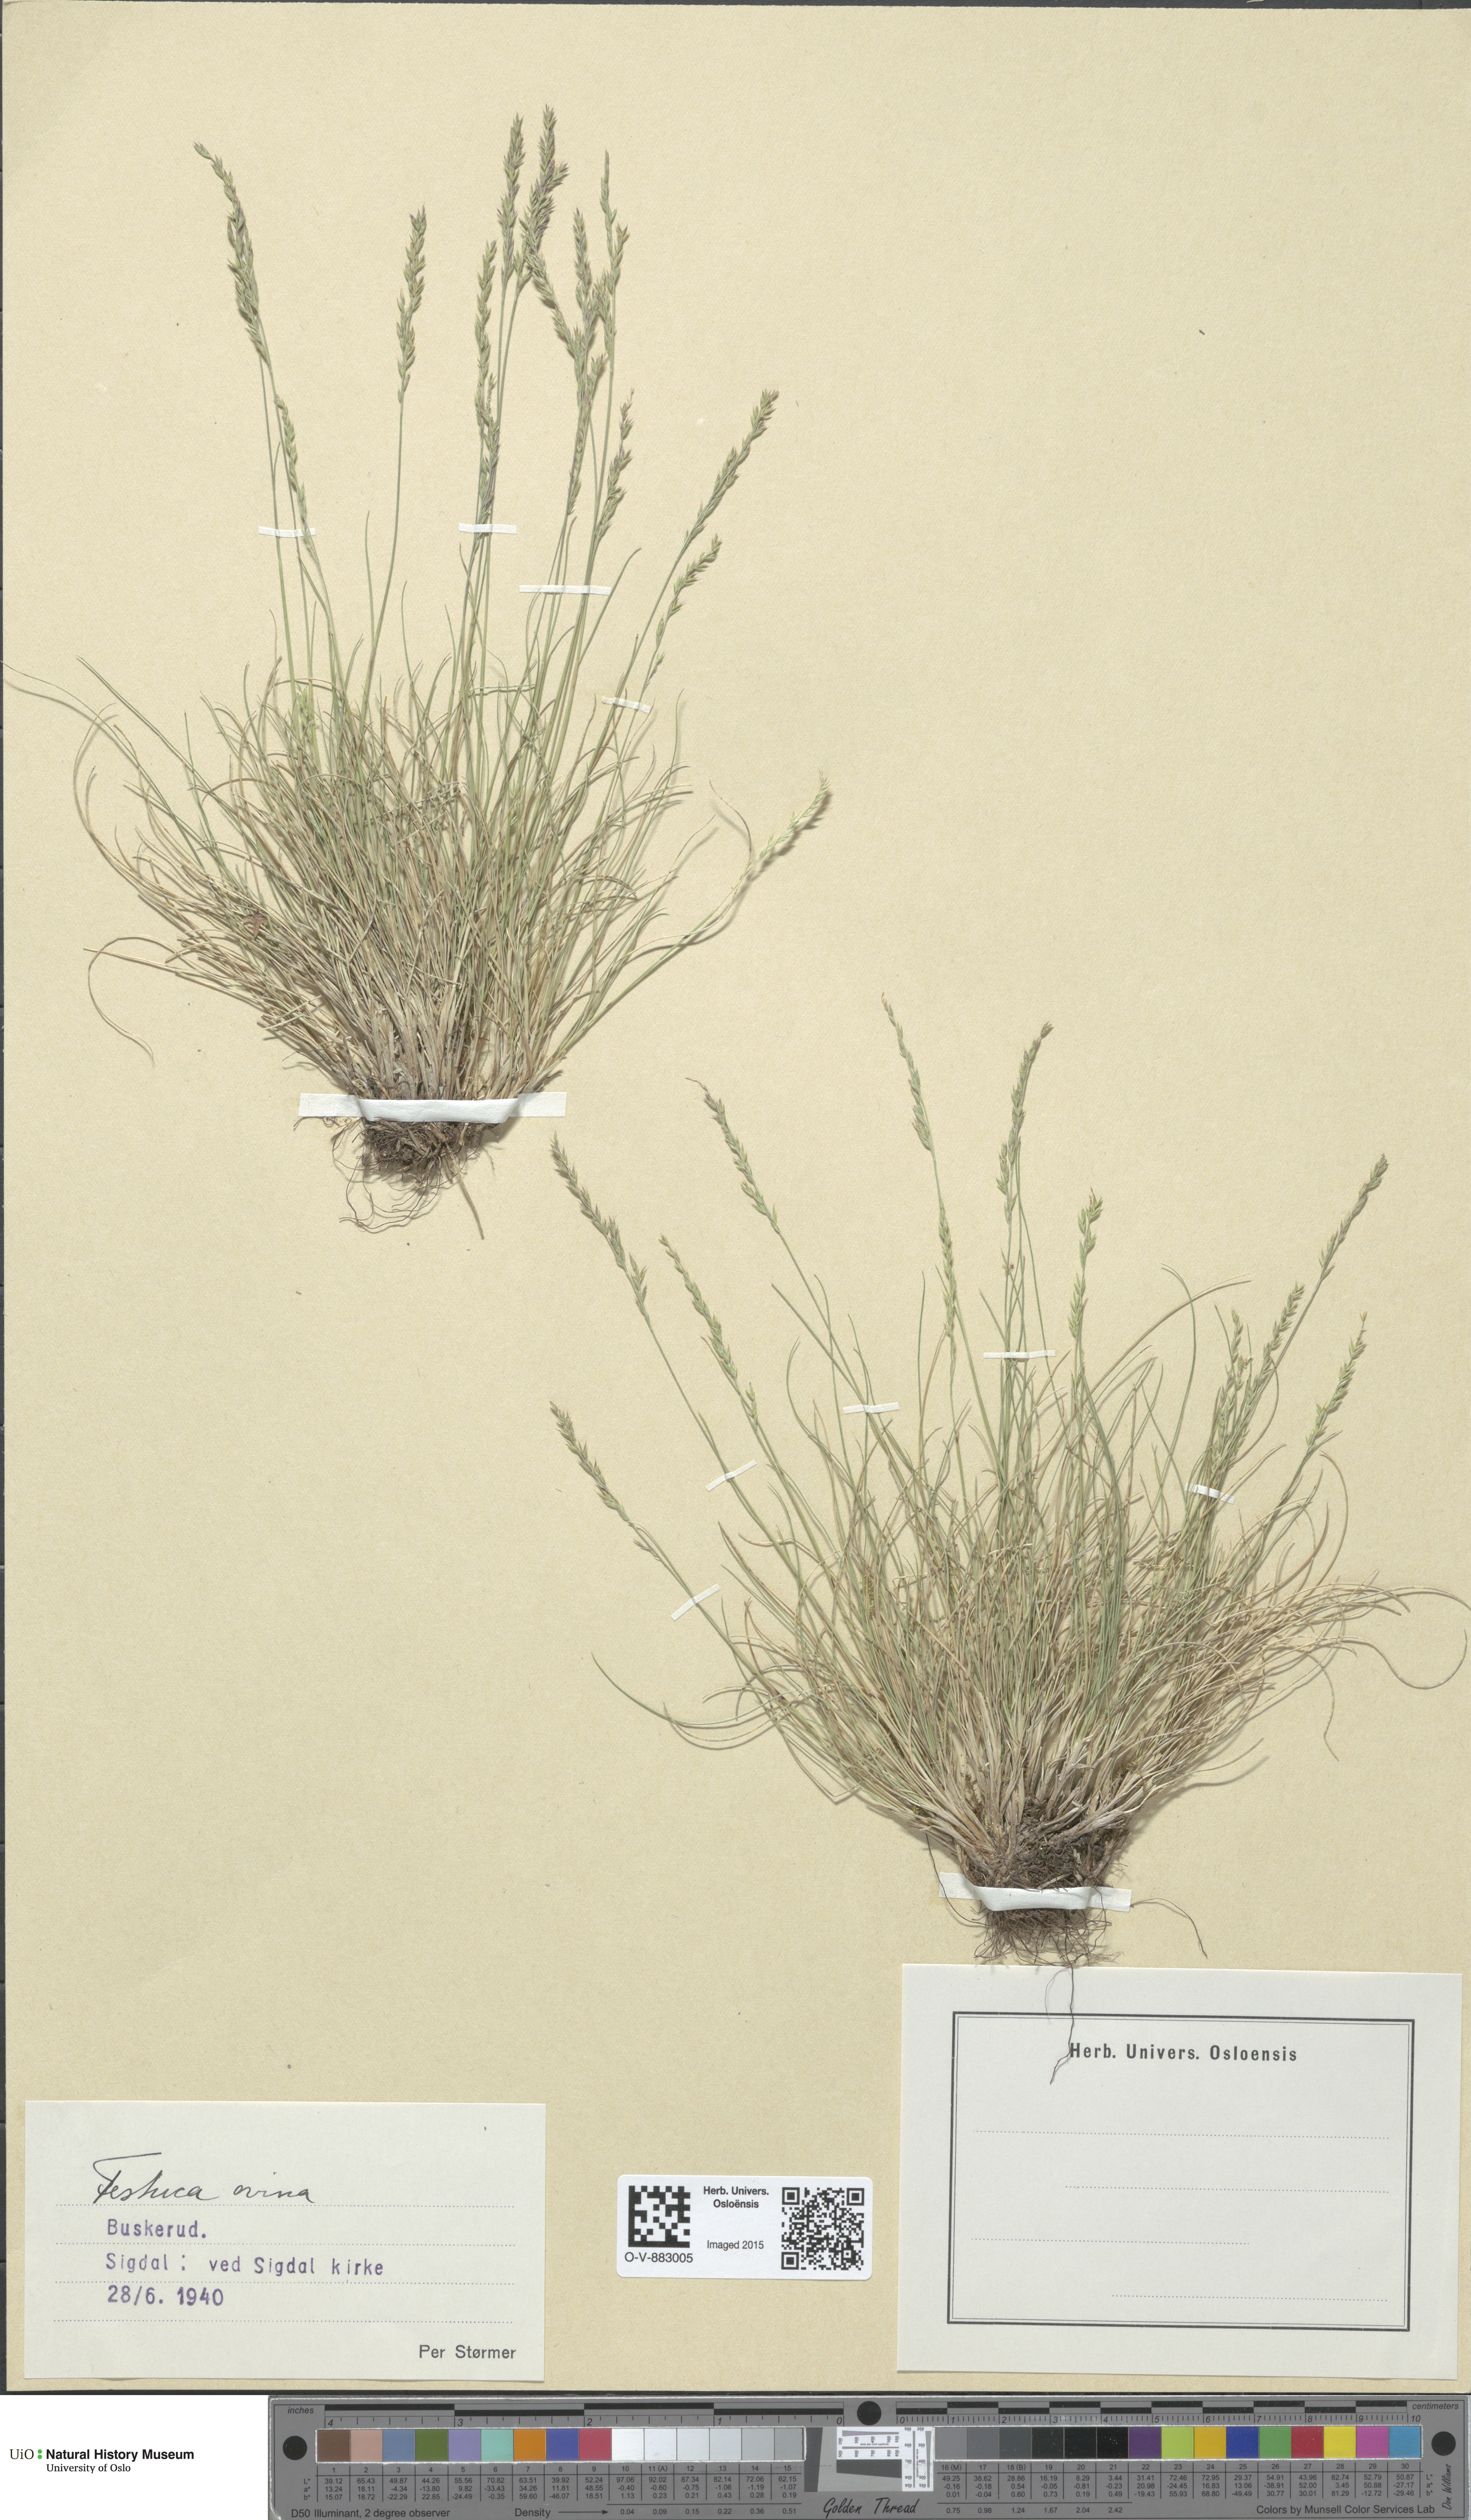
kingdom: Plantae
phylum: Tracheophyta
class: Liliopsida
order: Poales
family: Poaceae
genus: Festuca
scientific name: Festuca ovina
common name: Sheep fescue
